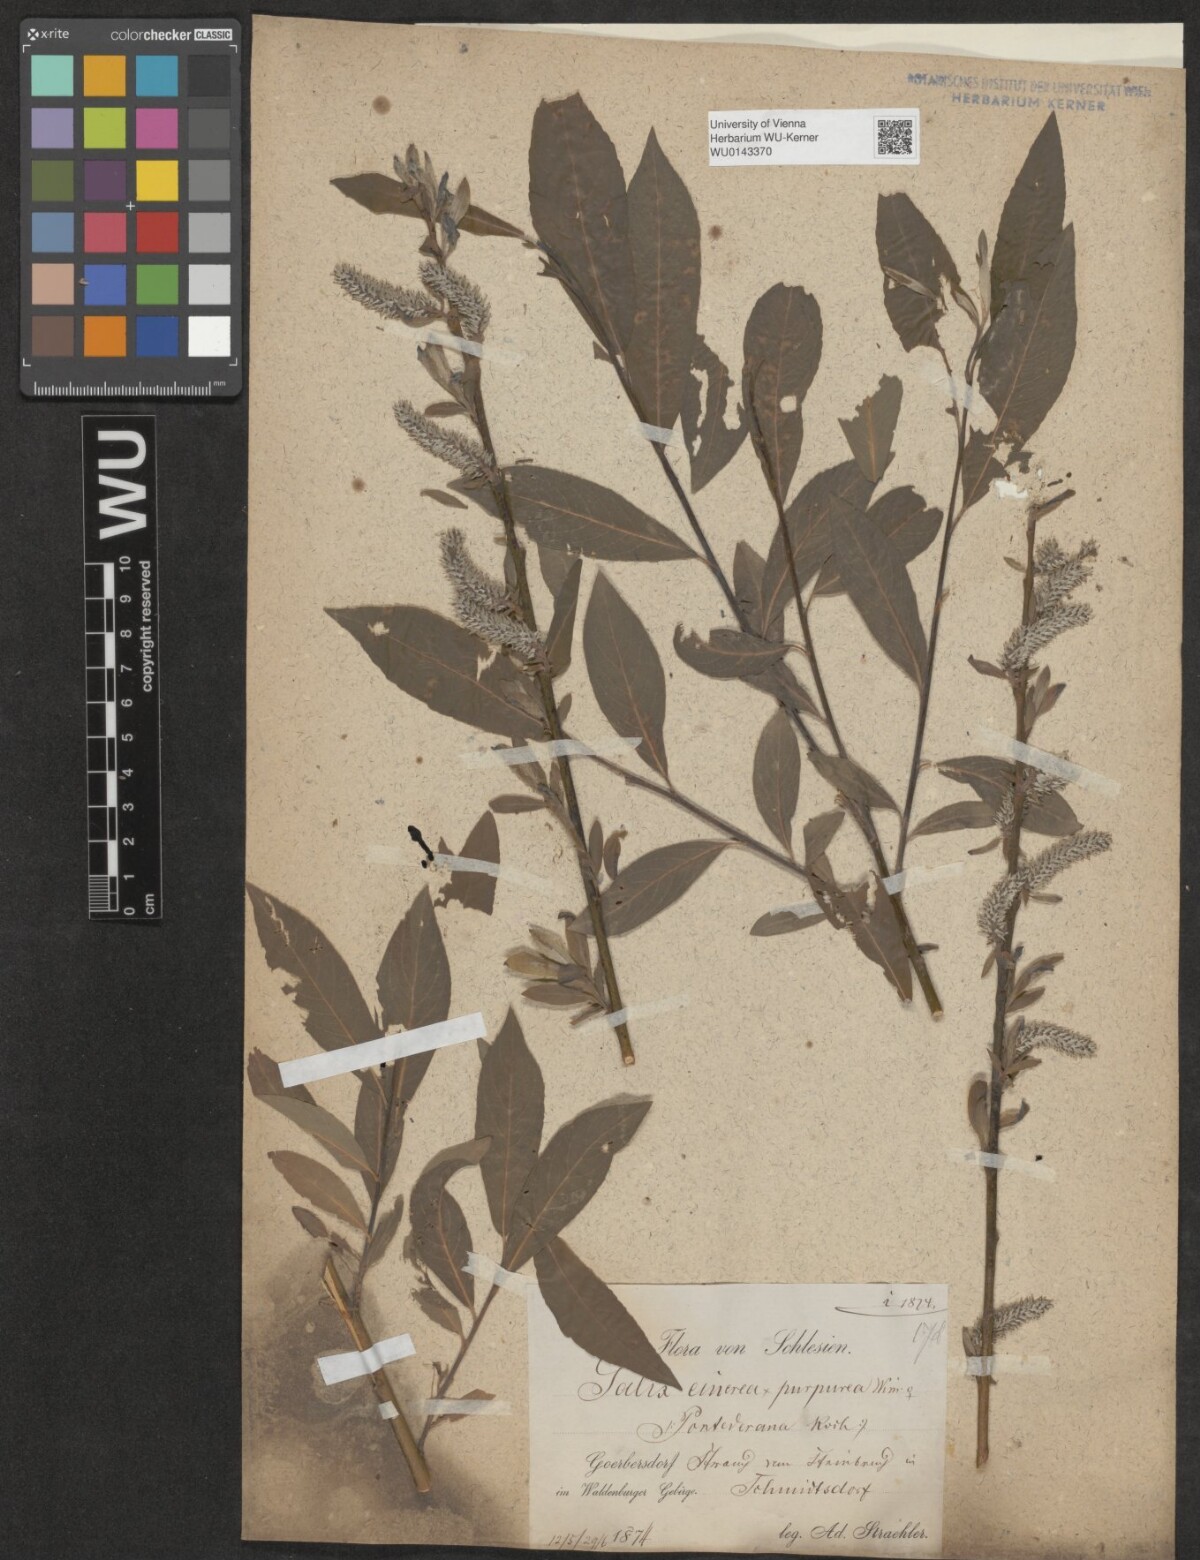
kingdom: Plantae
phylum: Tracheophyta
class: Magnoliopsida
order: Malpighiales
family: Salicaceae
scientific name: Salicaceae
